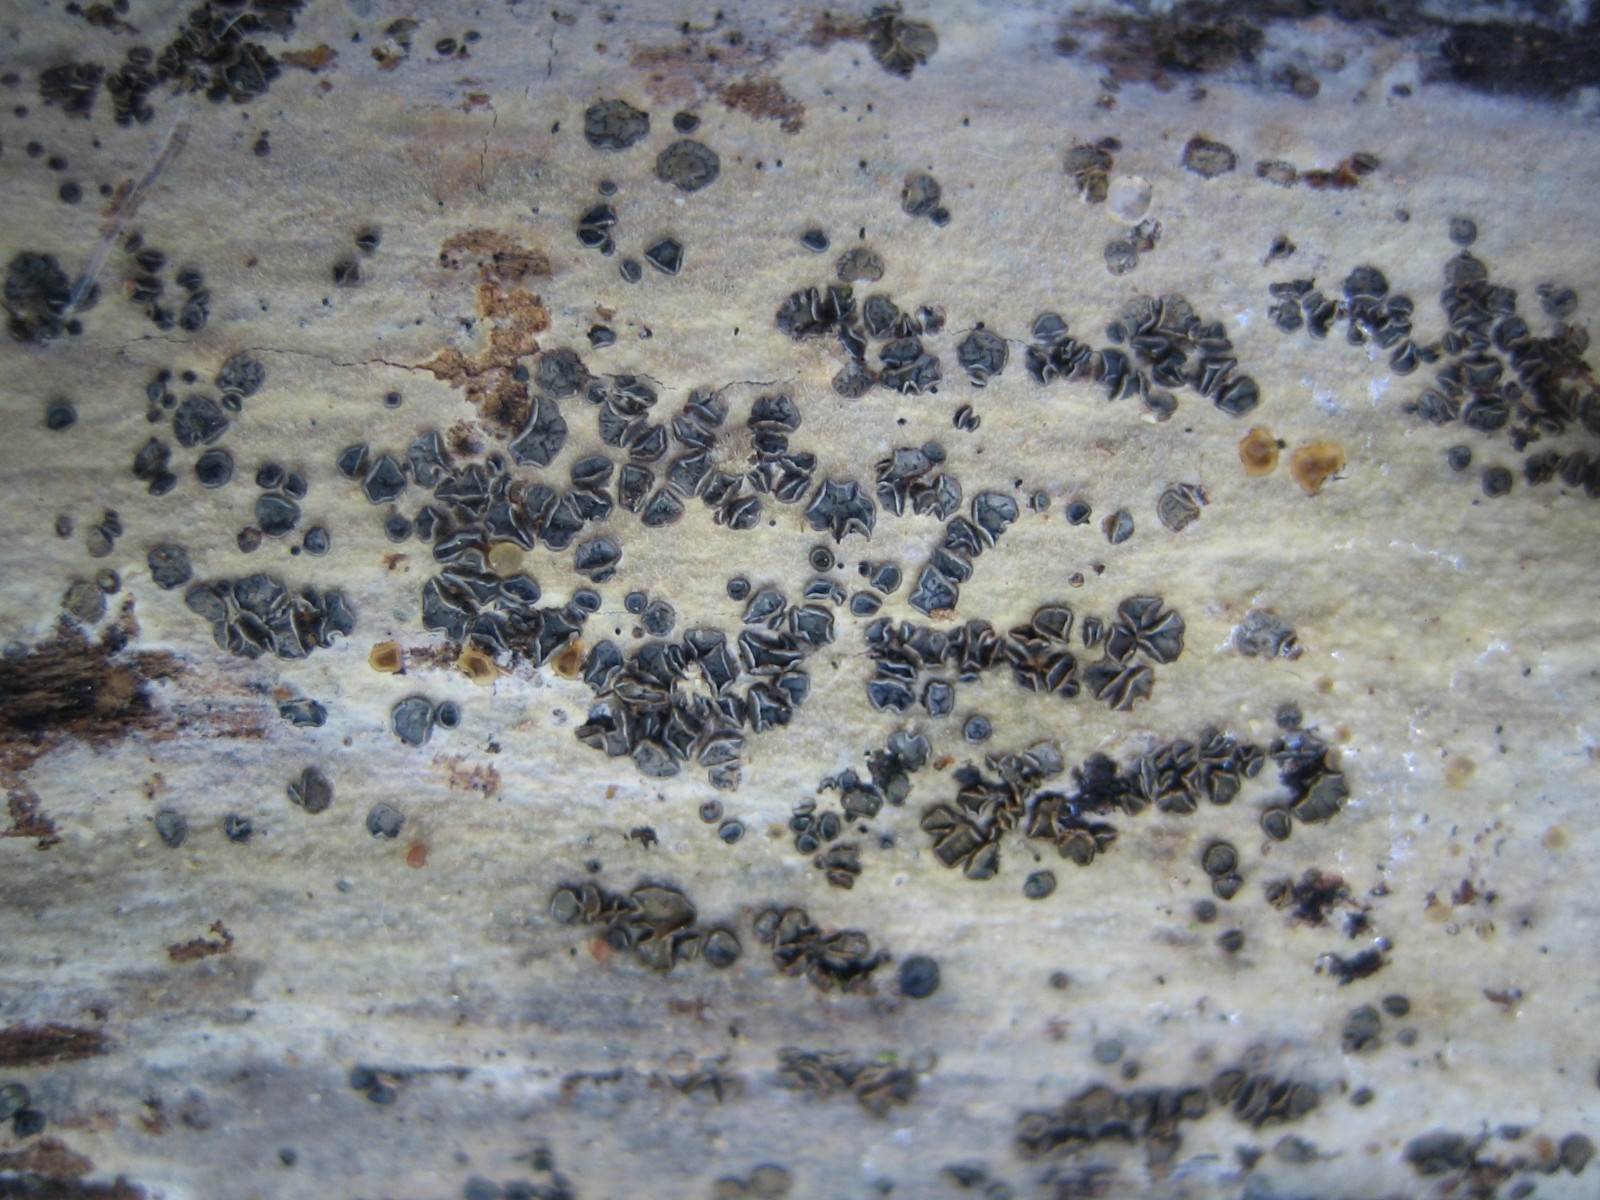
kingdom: Fungi
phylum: Ascomycota
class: Leotiomycetes
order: Helotiales
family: Mollisiaceae
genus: Mollisia
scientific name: Mollisia
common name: gråskive
